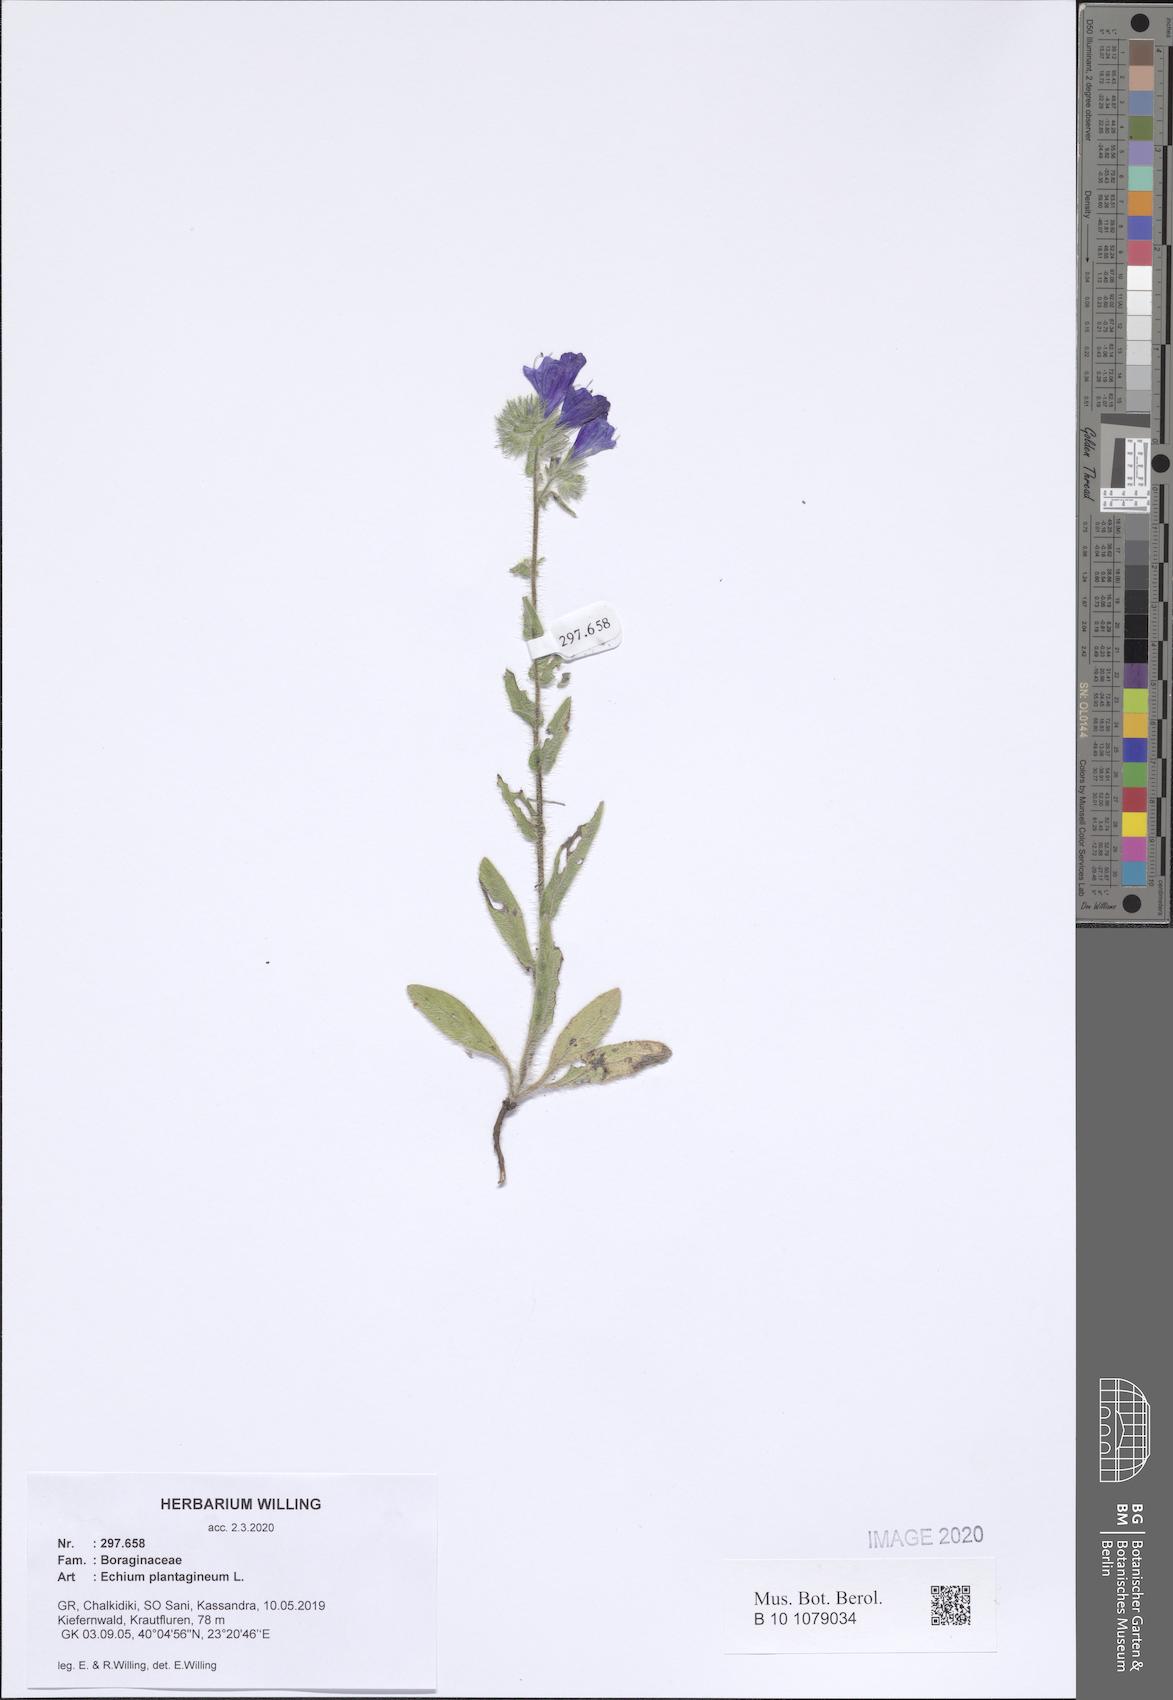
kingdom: Plantae
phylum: Tracheophyta
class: Magnoliopsida
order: Boraginales
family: Boraginaceae
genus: Echium
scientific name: Echium plantagineum
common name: Purple viper's-bugloss
